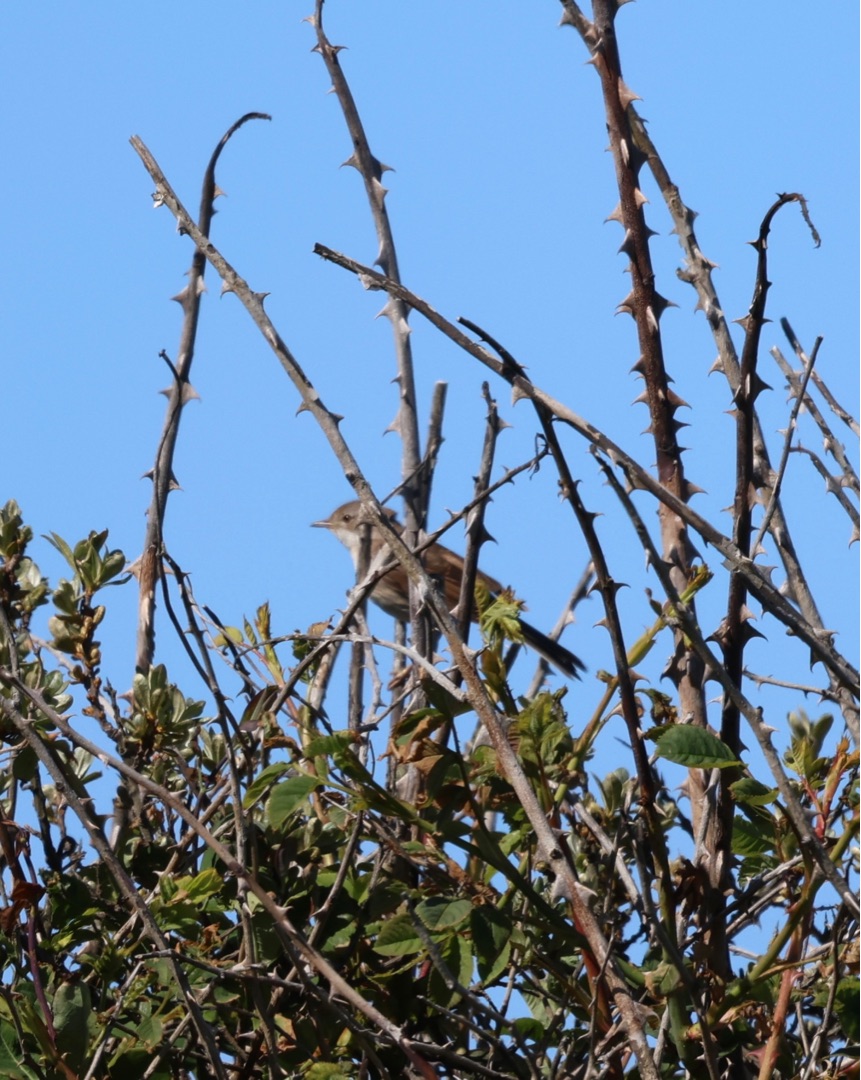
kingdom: Animalia
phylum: Chordata
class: Aves
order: Passeriformes
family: Sylviidae
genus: Sylvia
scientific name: Sylvia communis
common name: Tornsanger
